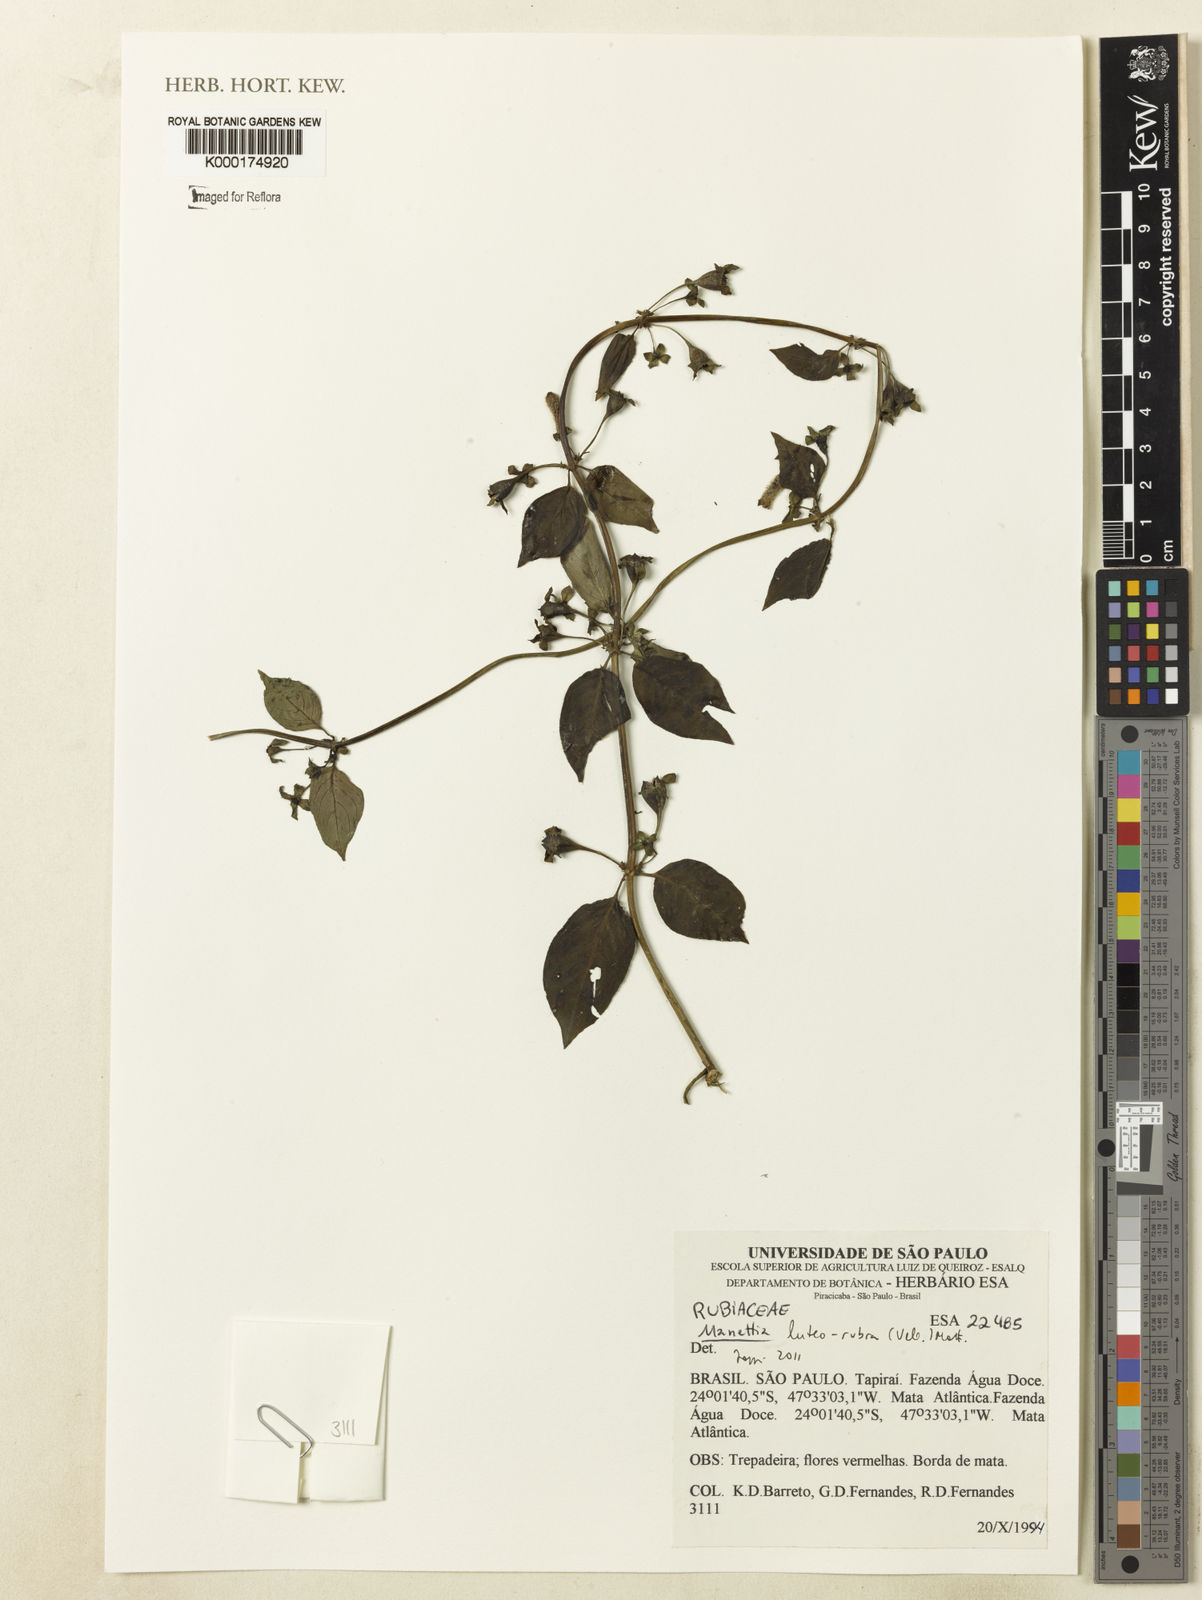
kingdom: Plantae
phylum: Tracheophyta
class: Magnoliopsida
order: Gentianales
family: Rubiaceae
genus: Manettia
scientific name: Manettia luteorubra
